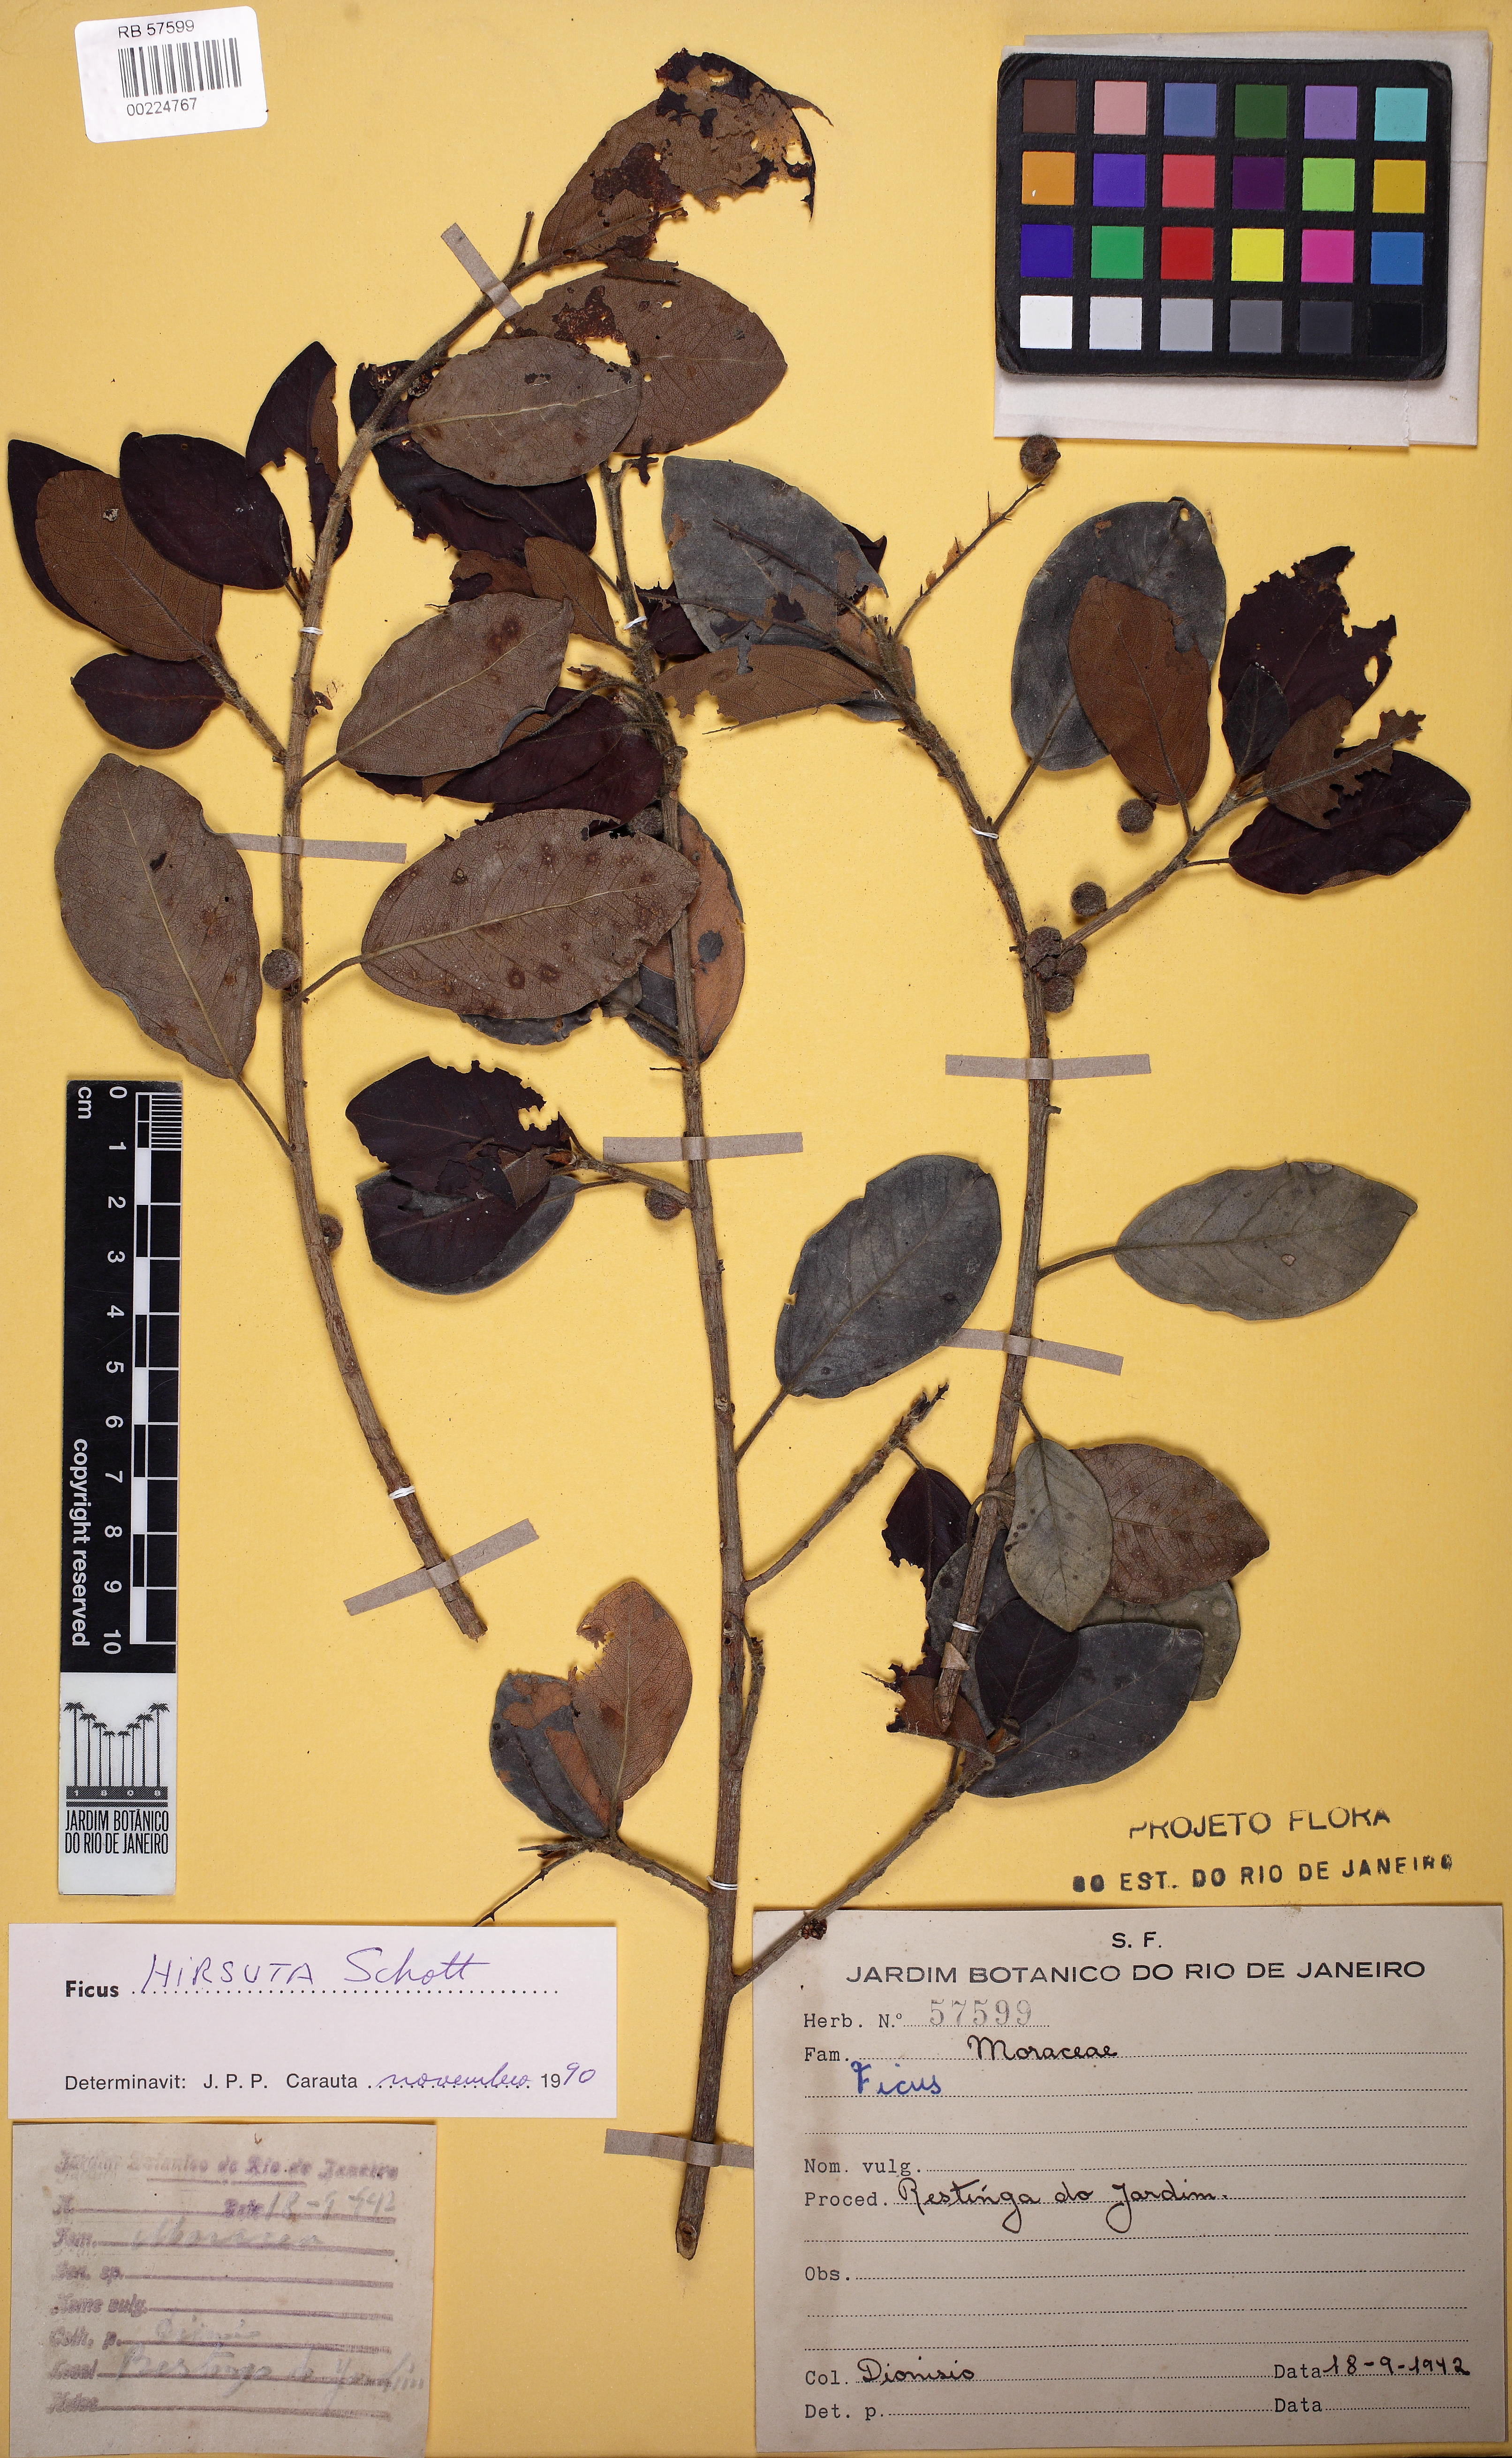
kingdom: Plantae
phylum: Tracheophyta
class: Magnoliopsida
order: Rosales
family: Moraceae
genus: Ficus
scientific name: Ficus hirsuta
